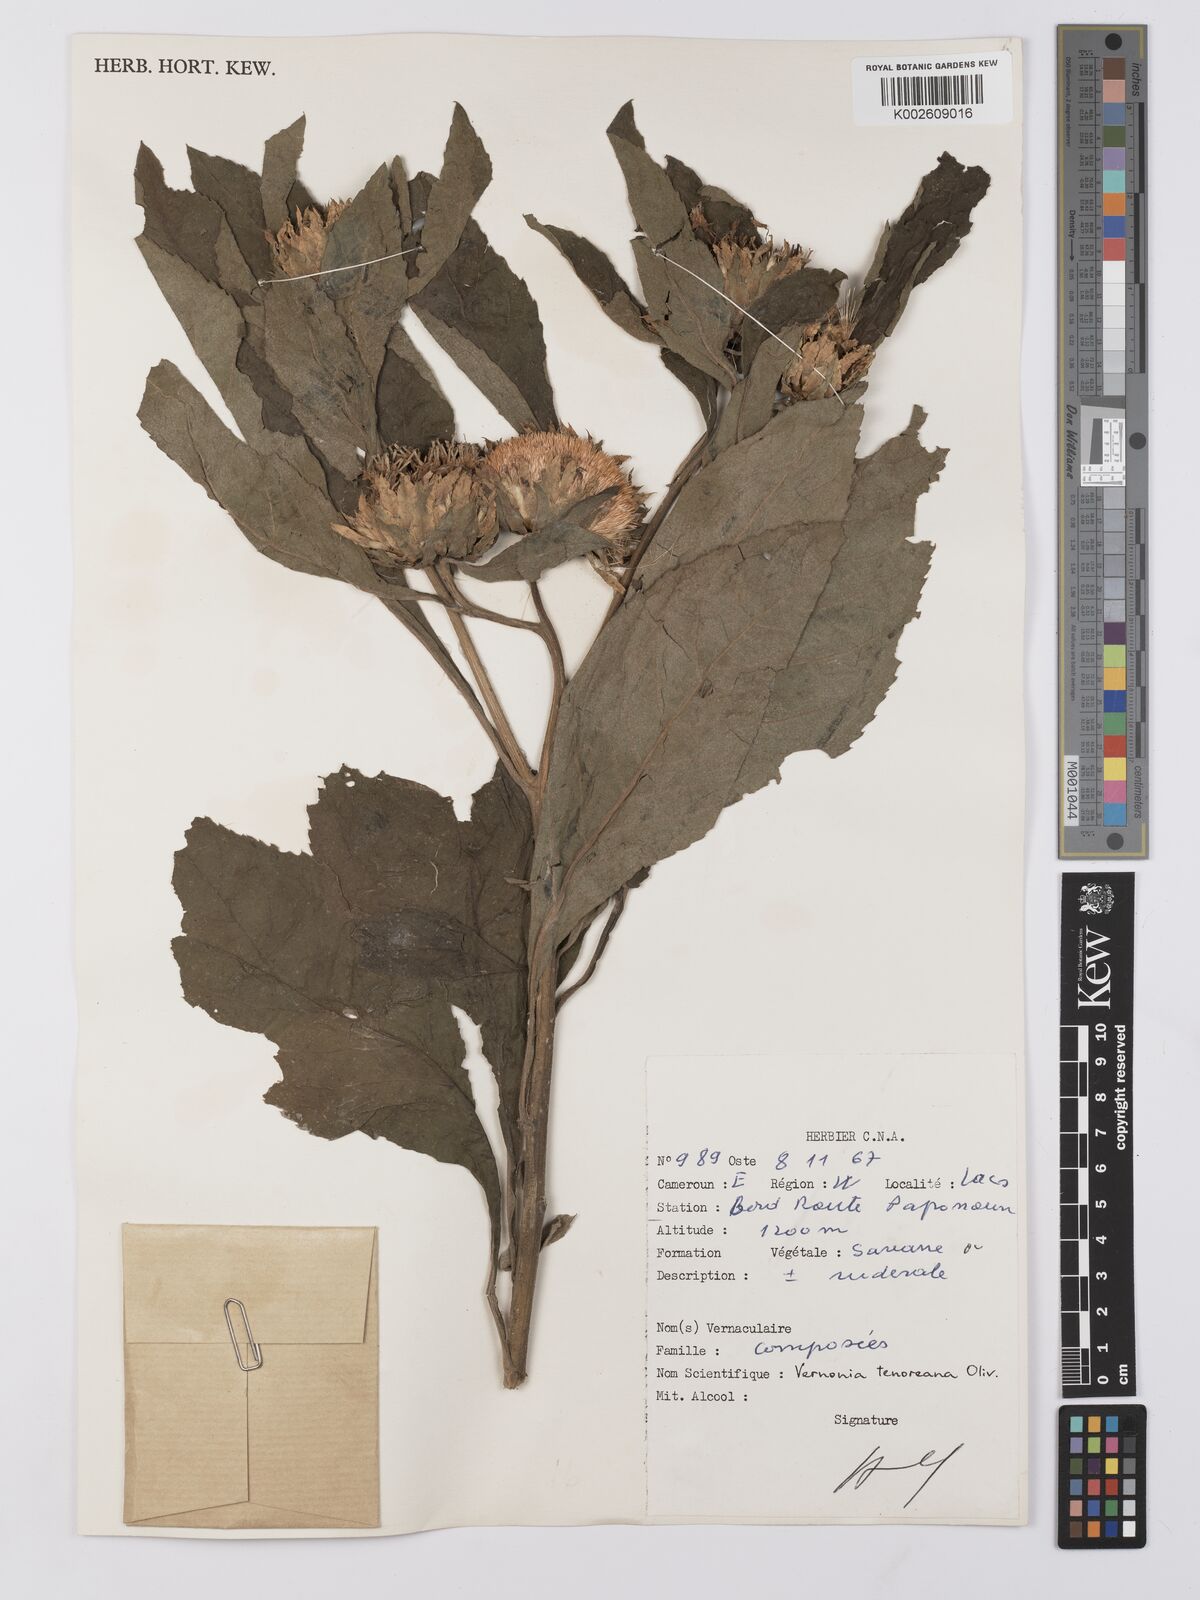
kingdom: Plantae
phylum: Tracheophyta
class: Magnoliopsida
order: Asterales
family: Asteraceae
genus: Baccharoides
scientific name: Baccharoides adoensis
